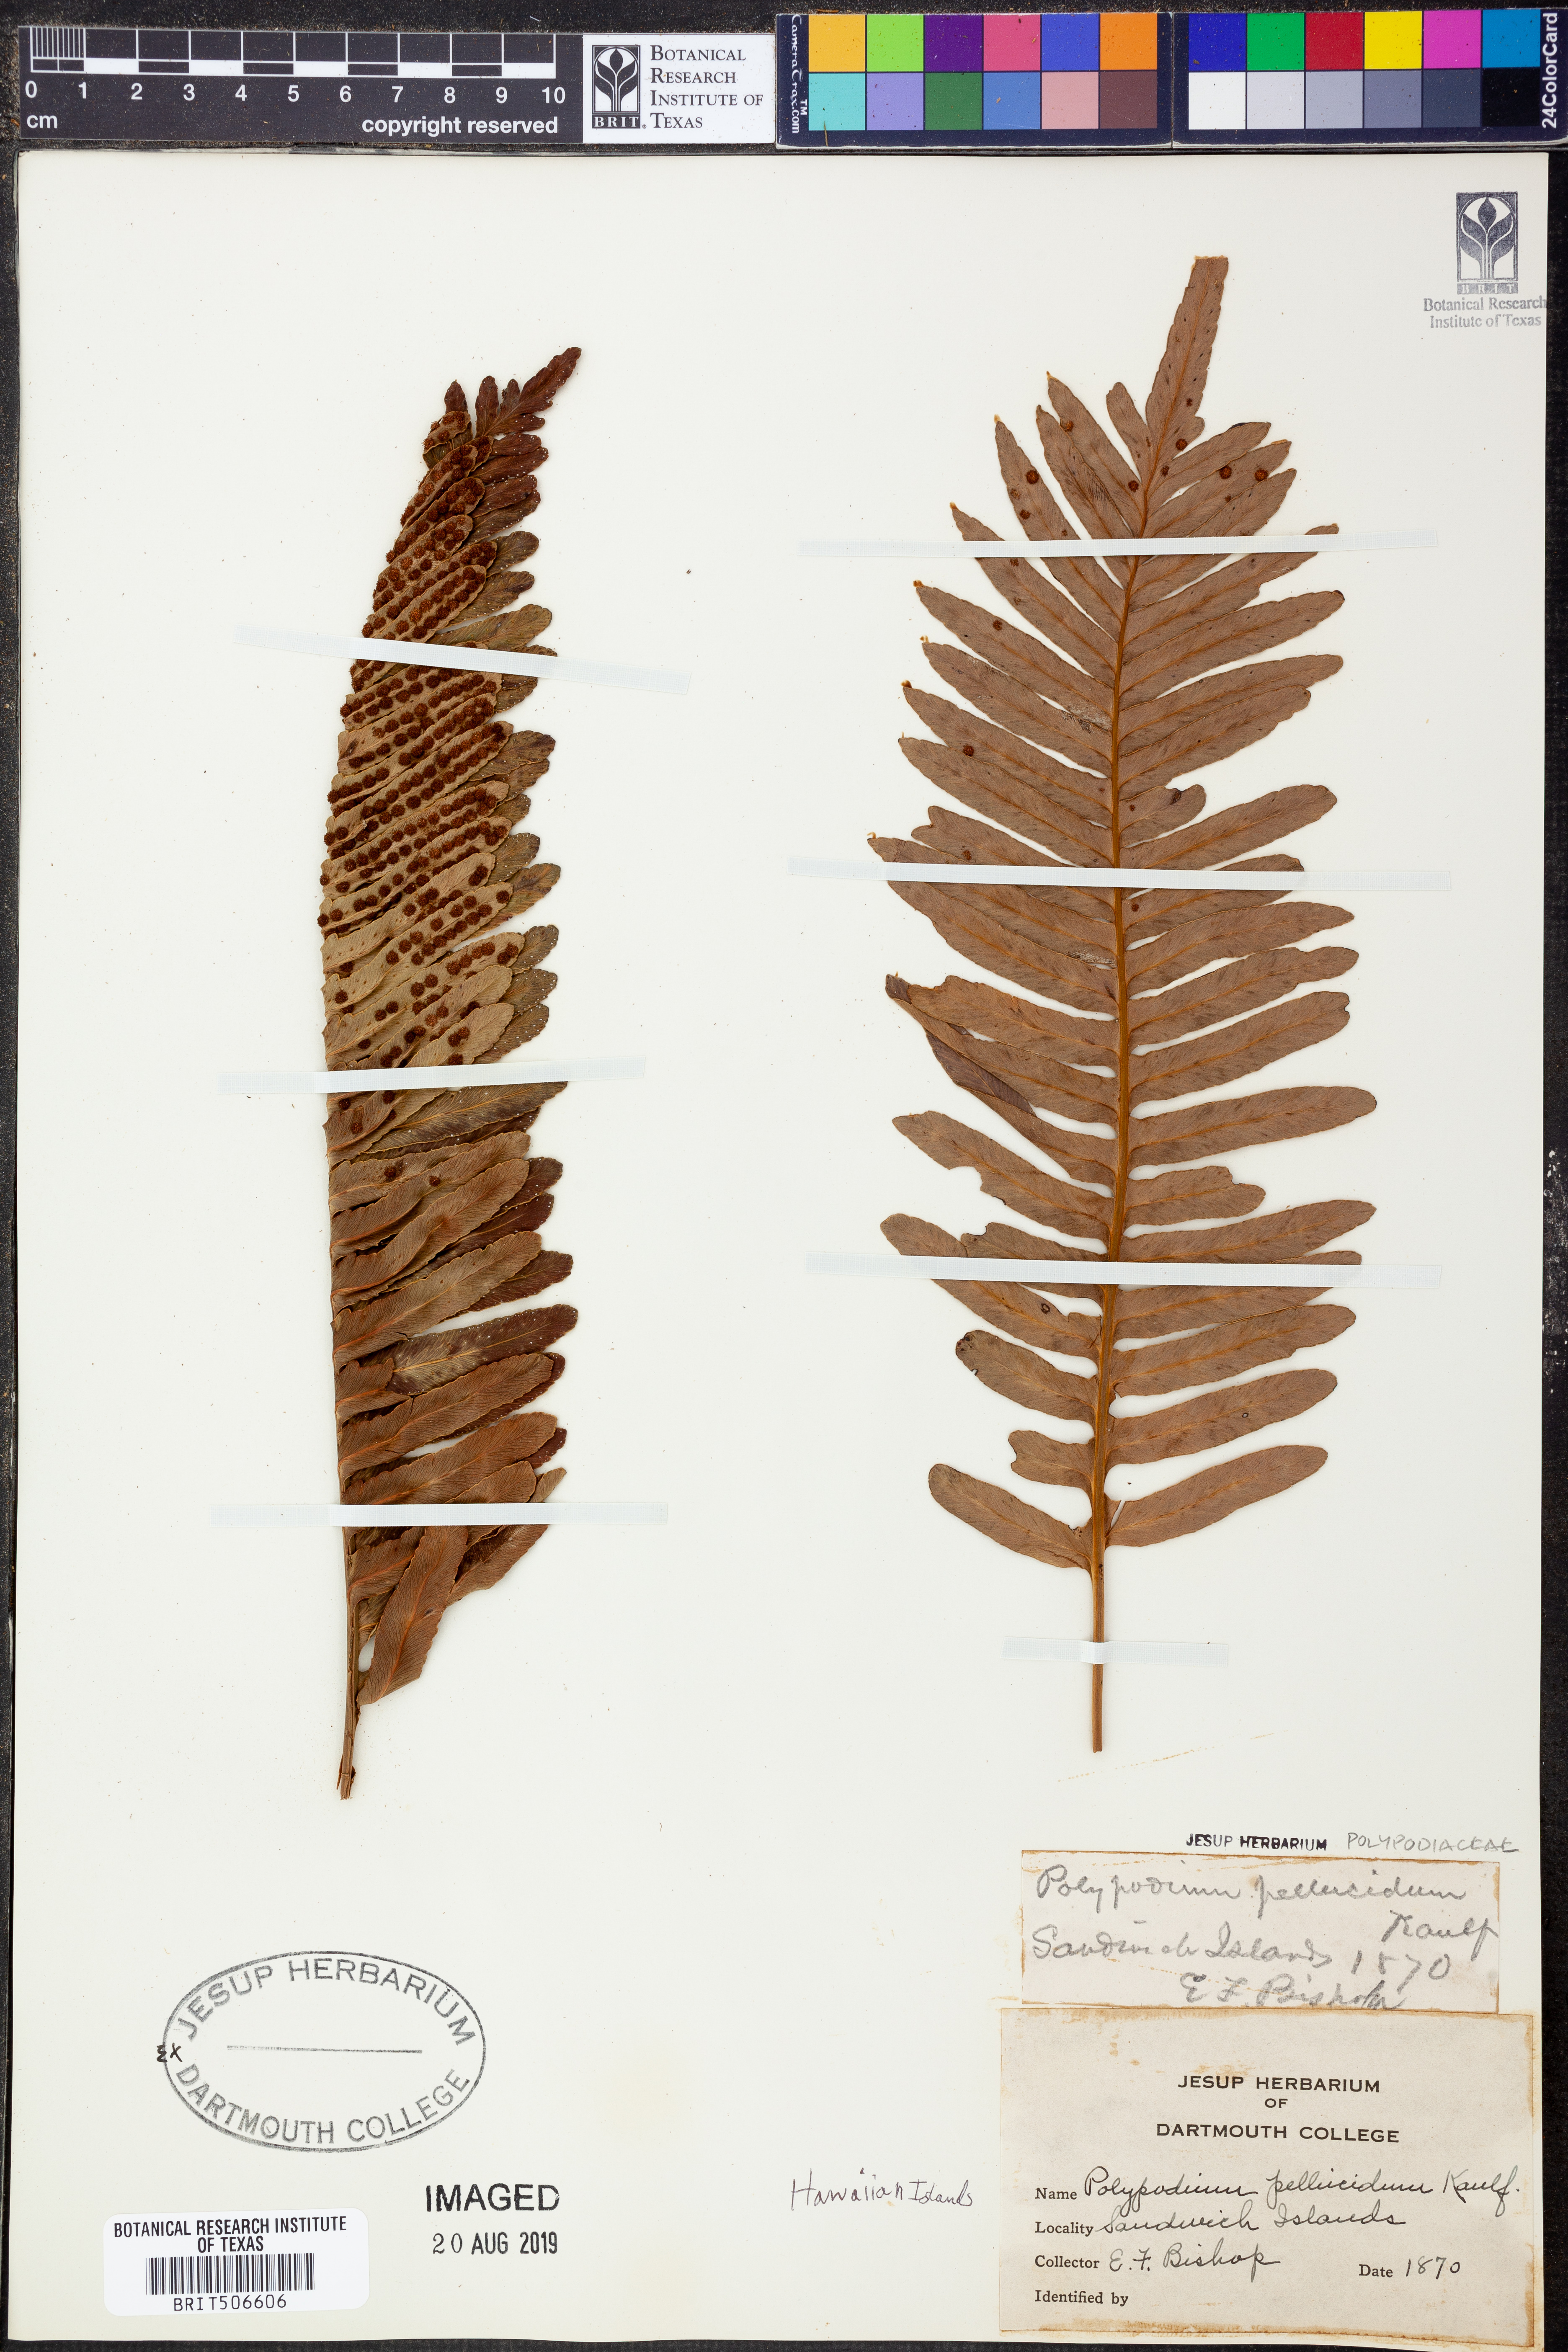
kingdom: Plantae
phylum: Tracheophyta
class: Polypodiopsida
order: Polypodiales
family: Polypodiaceae
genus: Polypodium
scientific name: Polypodium pellucidum
